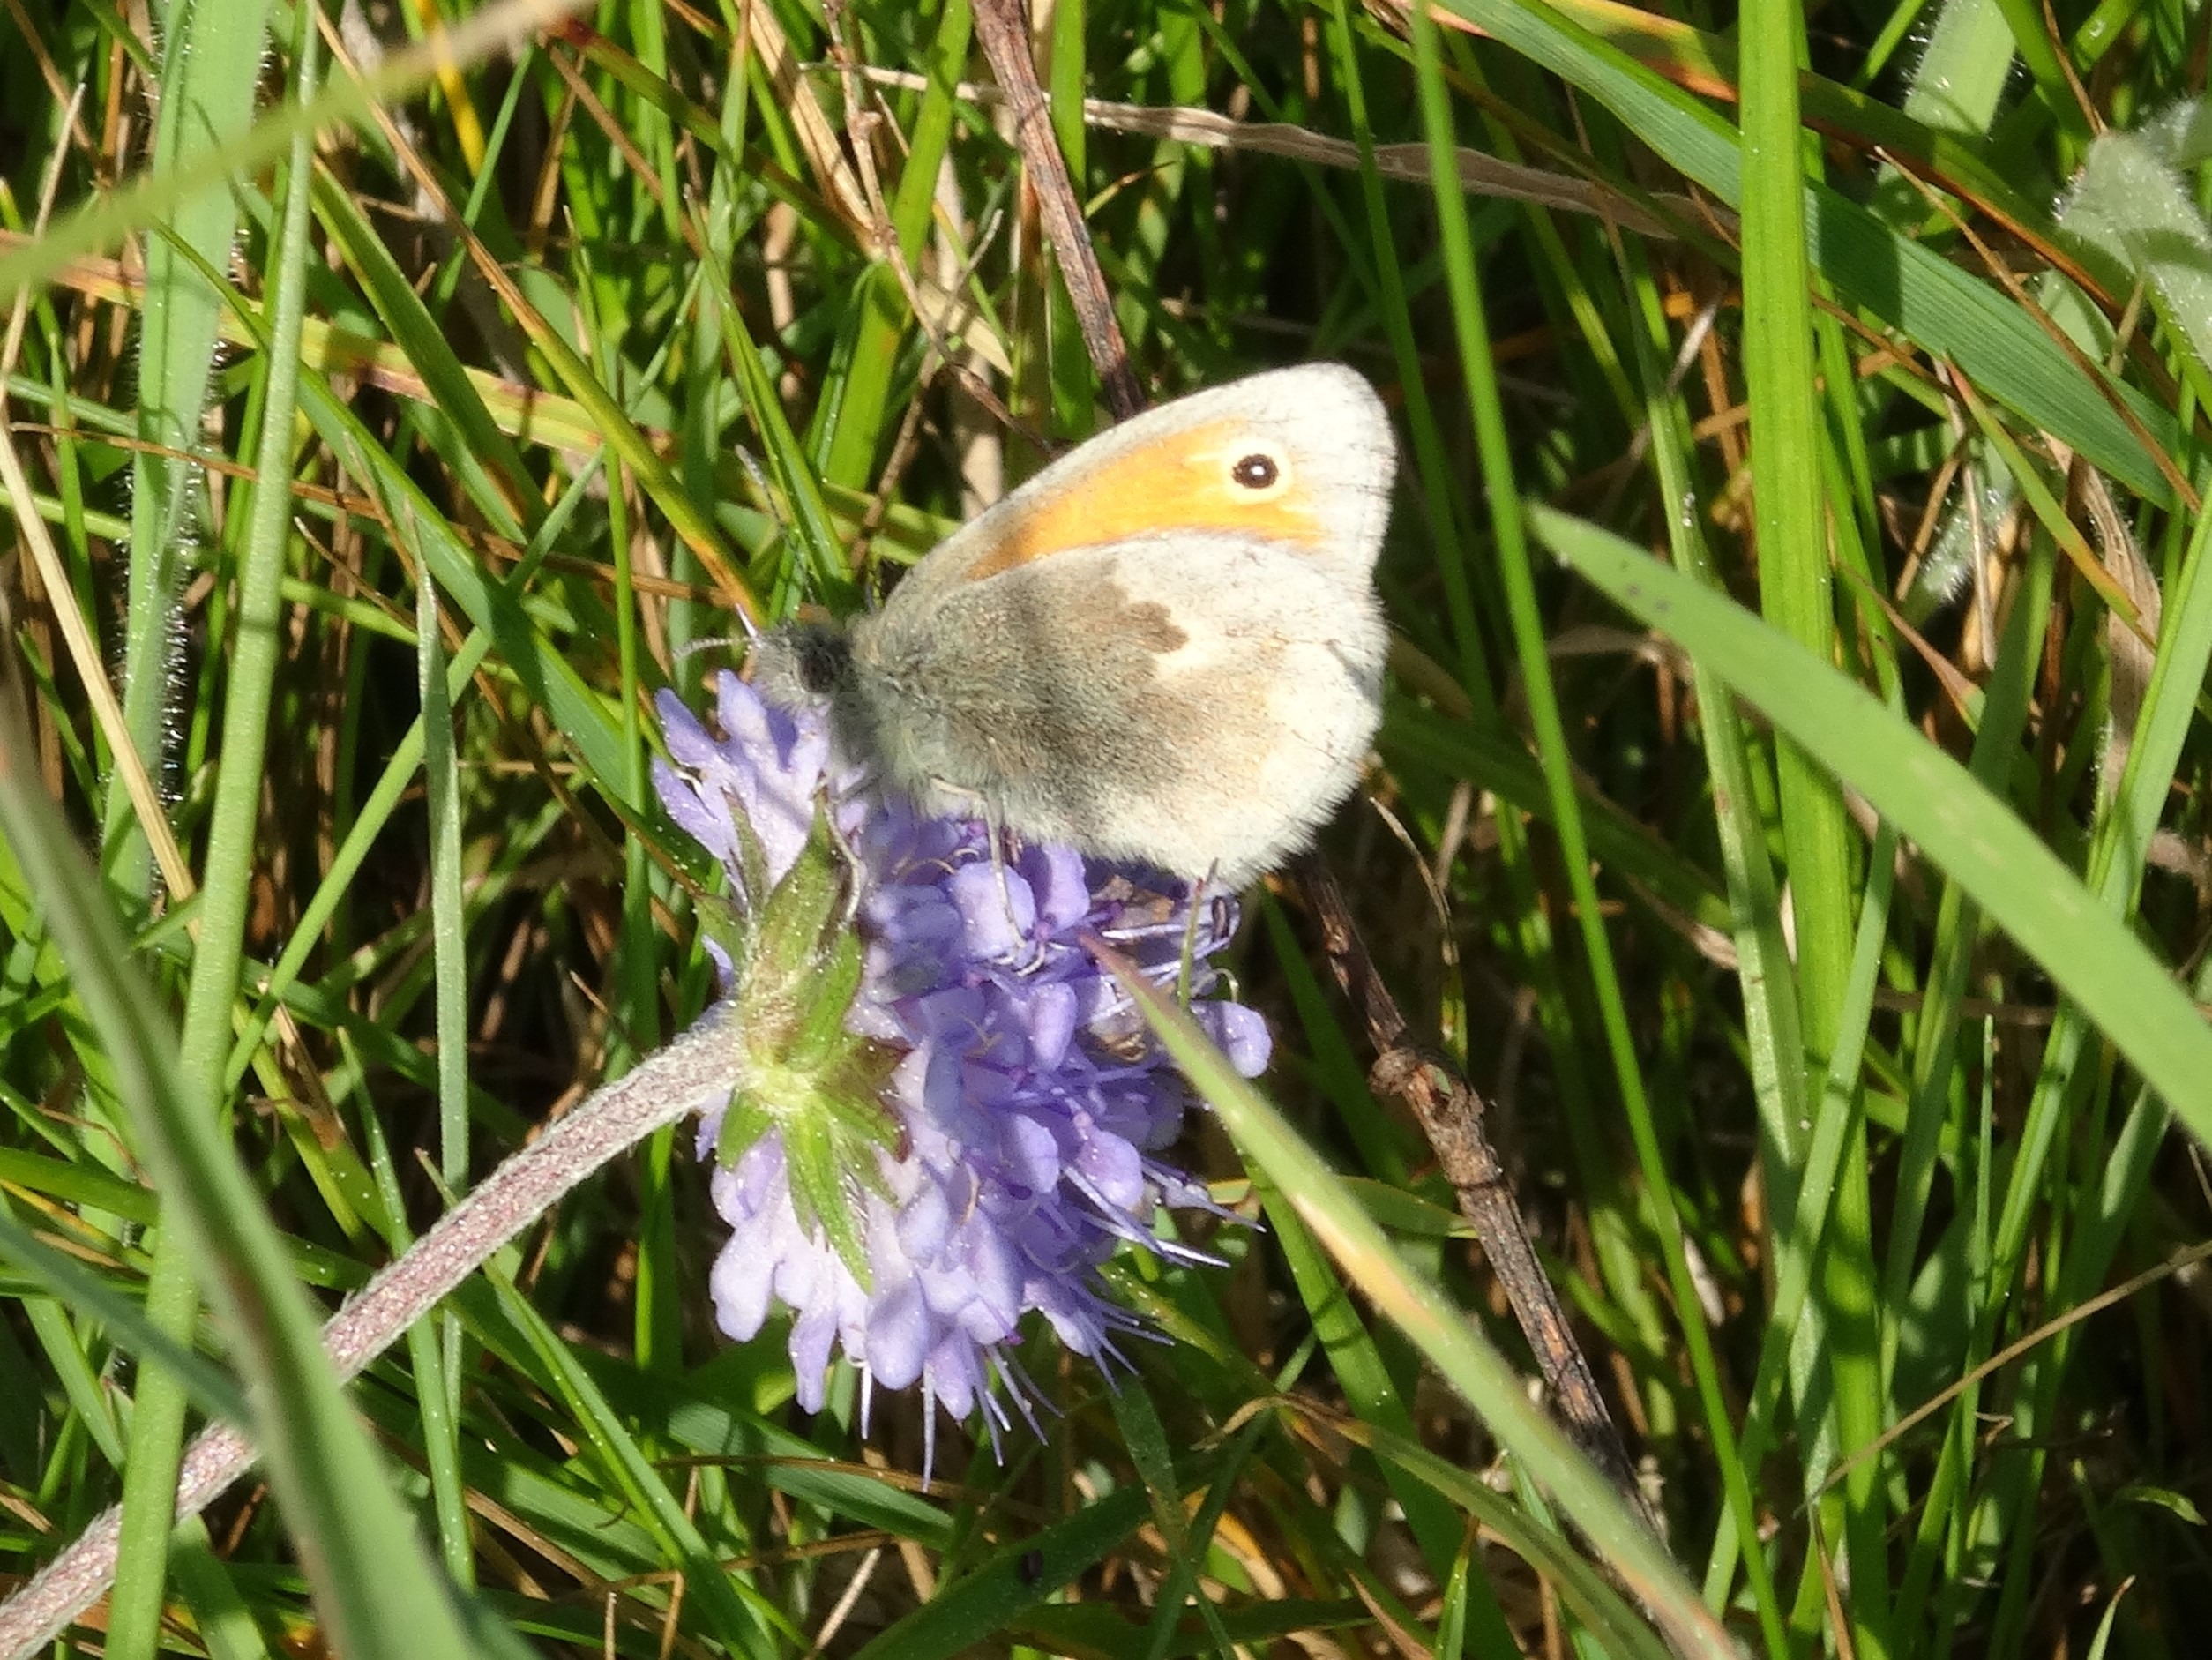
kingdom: Animalia
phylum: Arthropoda
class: Insecta
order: Lepidoptera
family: Nymphalidae
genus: Coenonympha
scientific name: Coenonympha pamphilus
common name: Okkergul randøje
